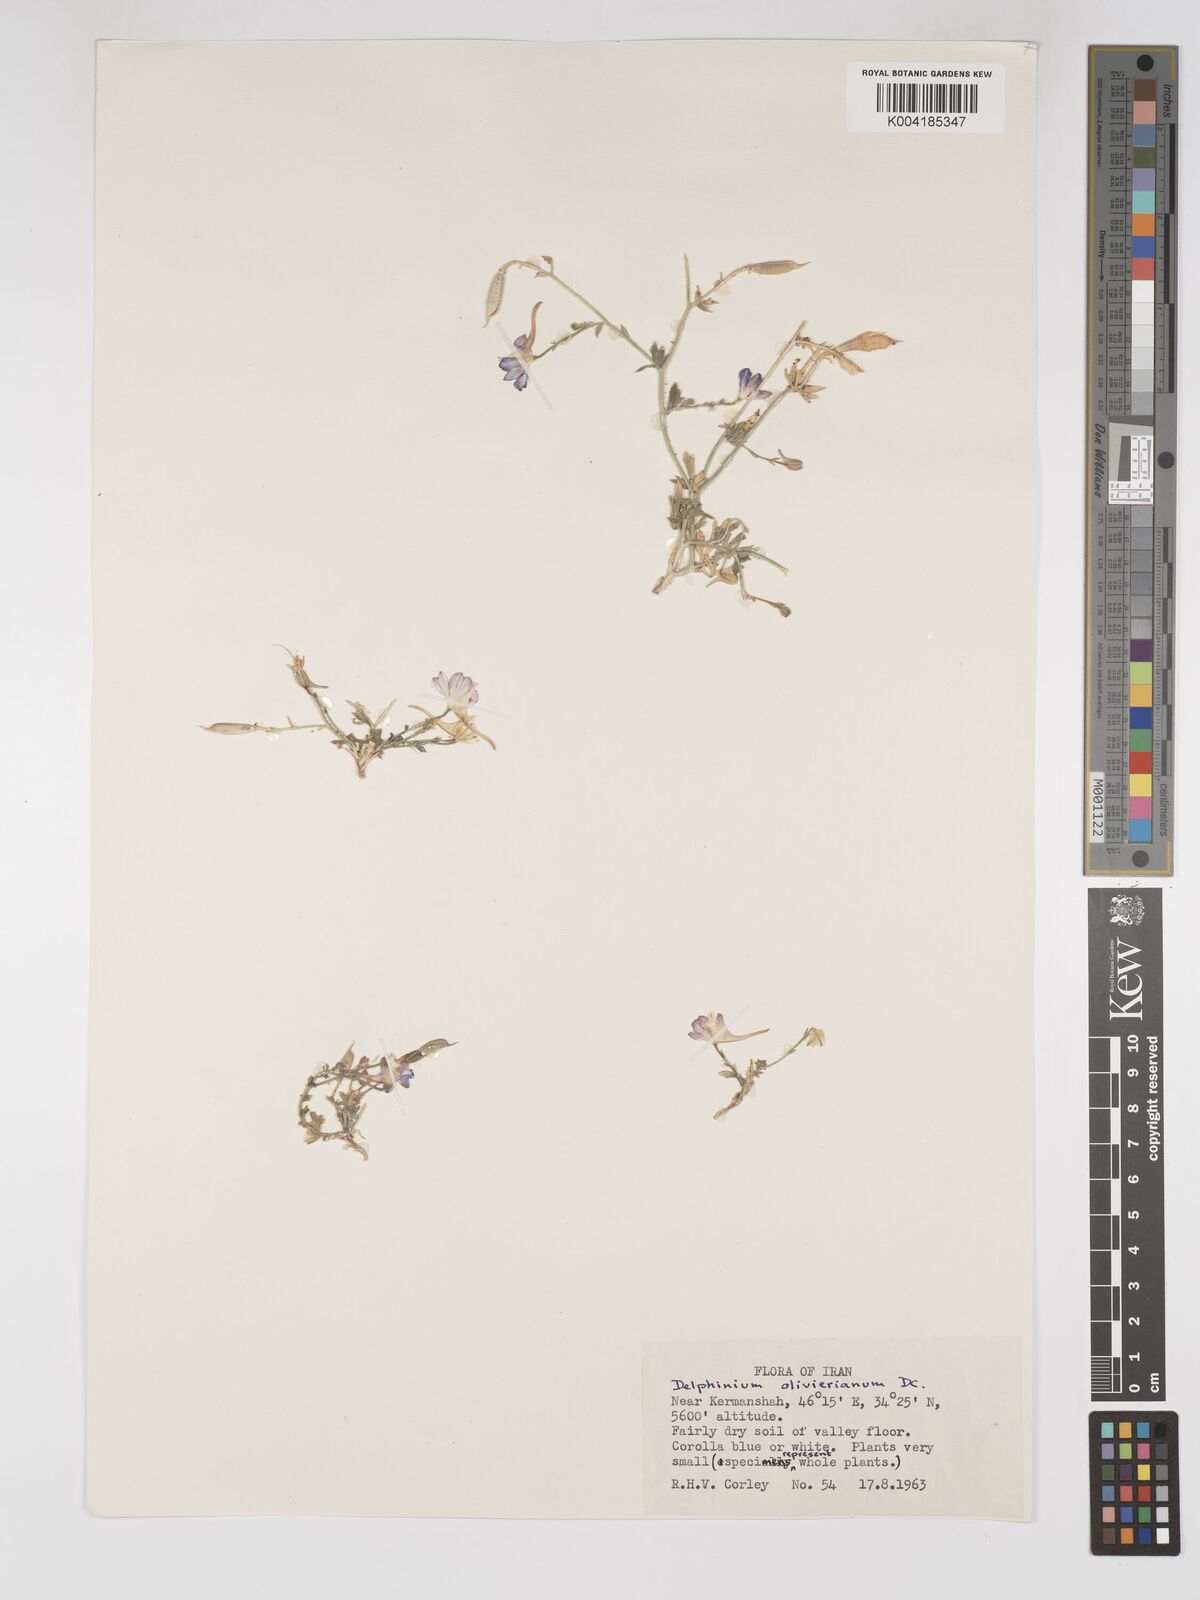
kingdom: Plantae
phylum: Tracheophyta
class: Magnoliopsida
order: Ranunculales
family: Ranunculaceae
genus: Delphinium
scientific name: Delphinium oliverianum
